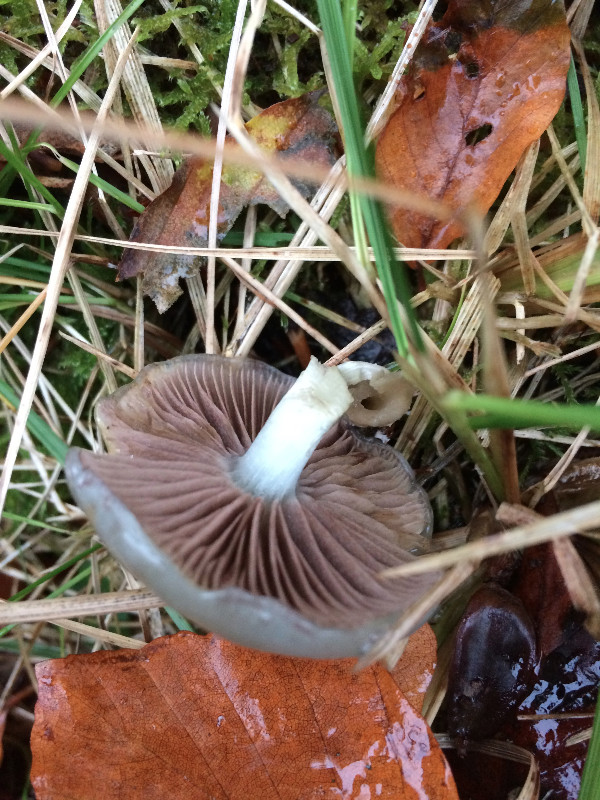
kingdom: Fungi
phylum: Basidiomycota
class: Agaricomycetes
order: Agaricales
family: Strophariaceae
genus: Stropharia
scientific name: Stropharia pseudocyanea
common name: blegblå bredblad
